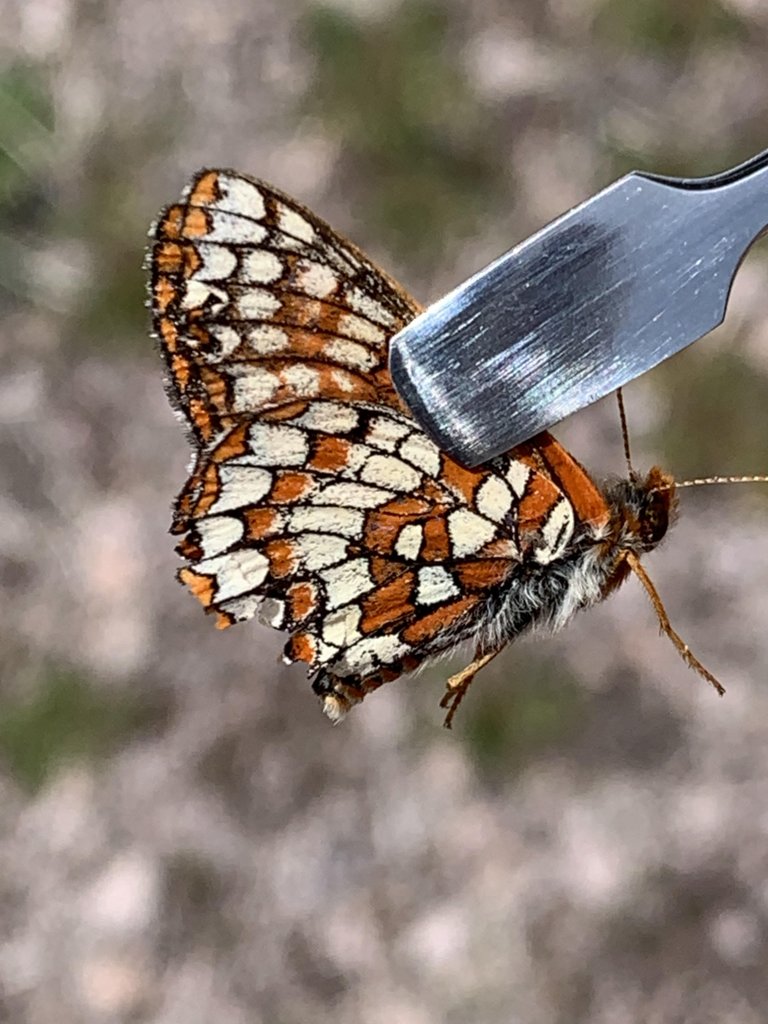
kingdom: Animalia
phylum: Arthropoda
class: Insecta
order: Lepidoptera
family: Nymphalidae
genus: Occidryas
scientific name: Occidryas anicia
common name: Anicia Checkerspot
